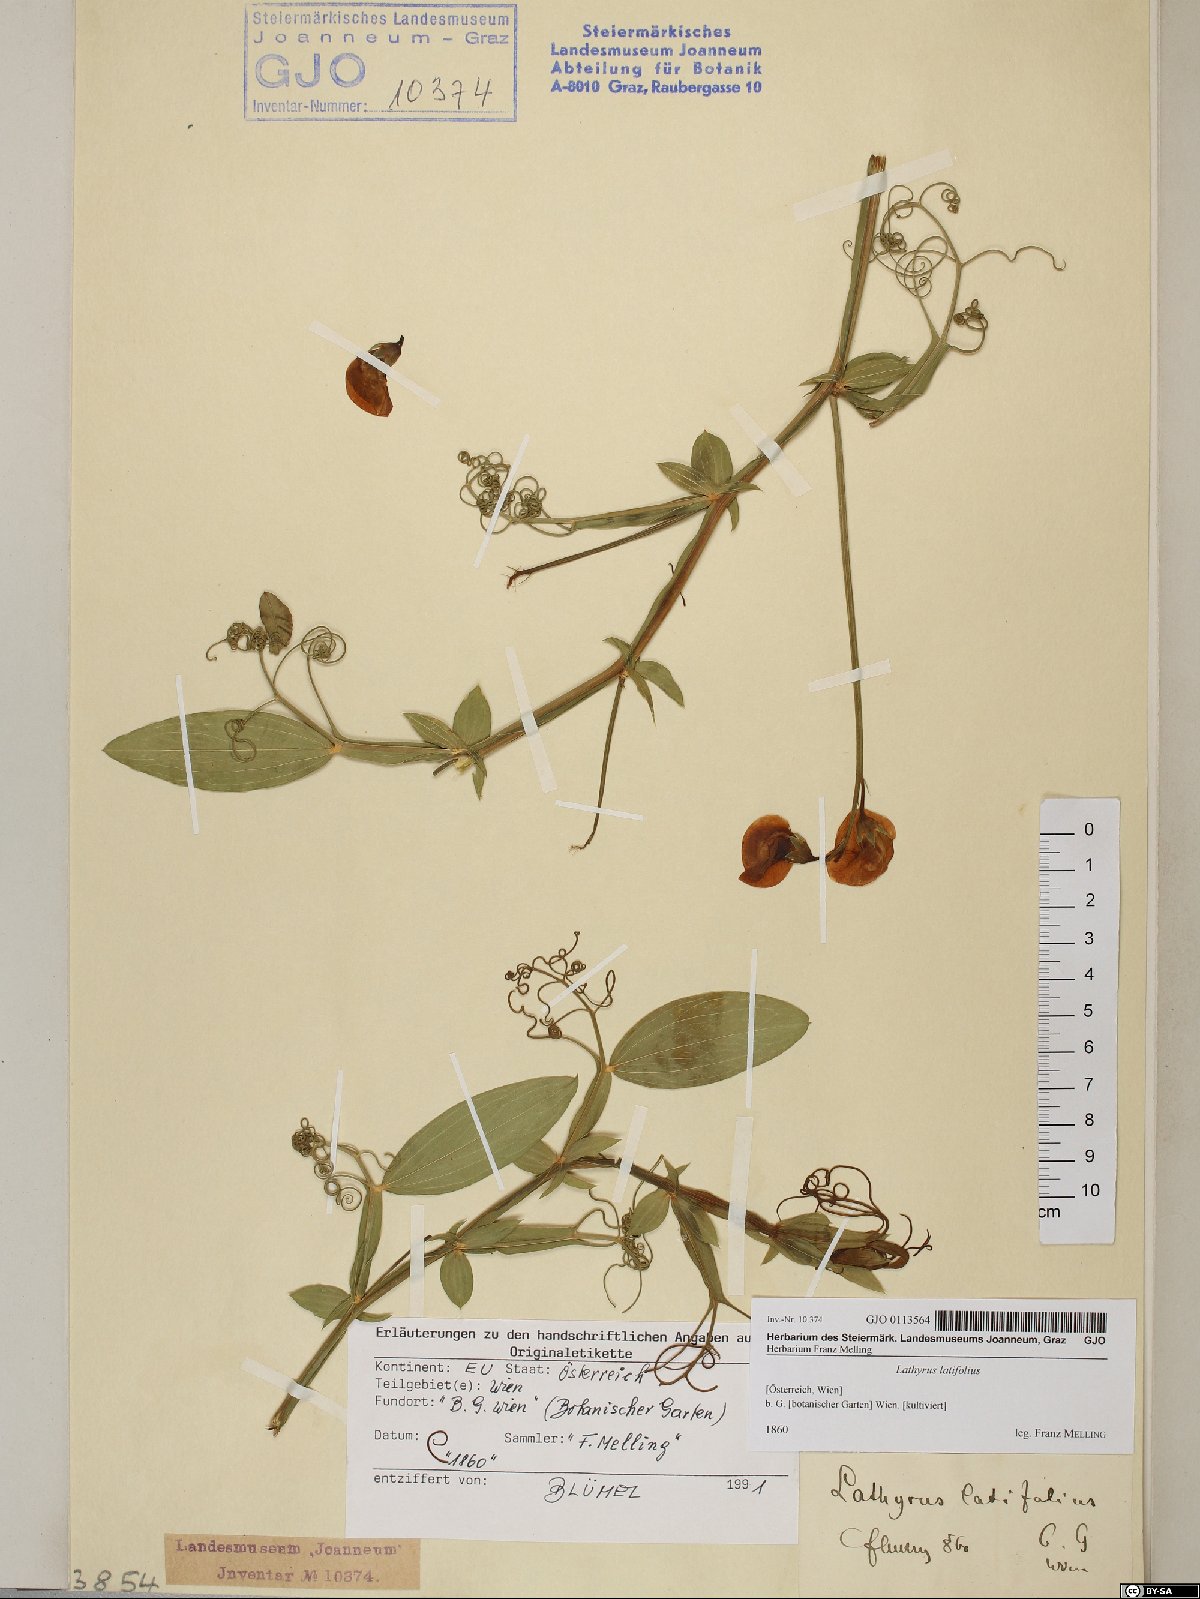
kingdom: Plantae
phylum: Tracheophyta
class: Magnoliopsida
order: Fabales
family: Fabaceae
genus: Lathyrus
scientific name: Lathyrus latifolius
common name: Perennial pea
